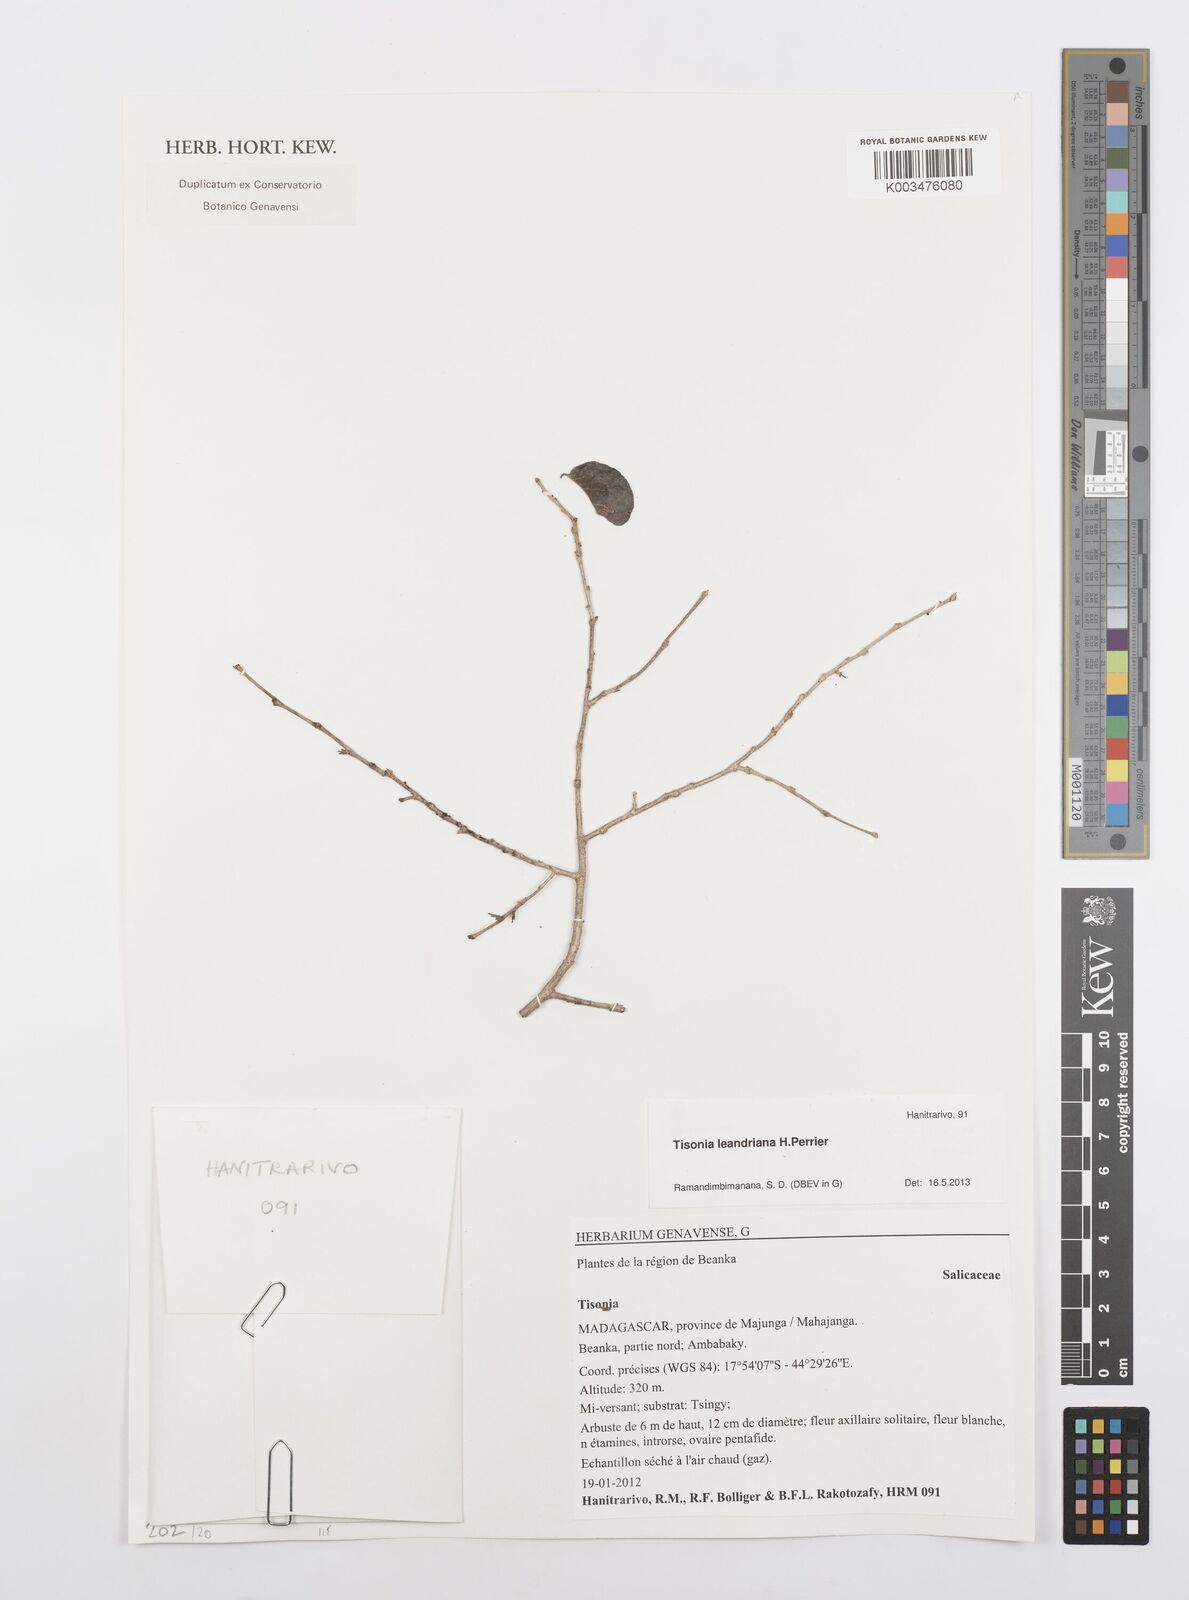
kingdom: Plantae
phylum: Tracheophyta
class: Magnoliopsida
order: Malpighiales
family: Salicaceae
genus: Tisonia
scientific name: Tisonia leandriana
